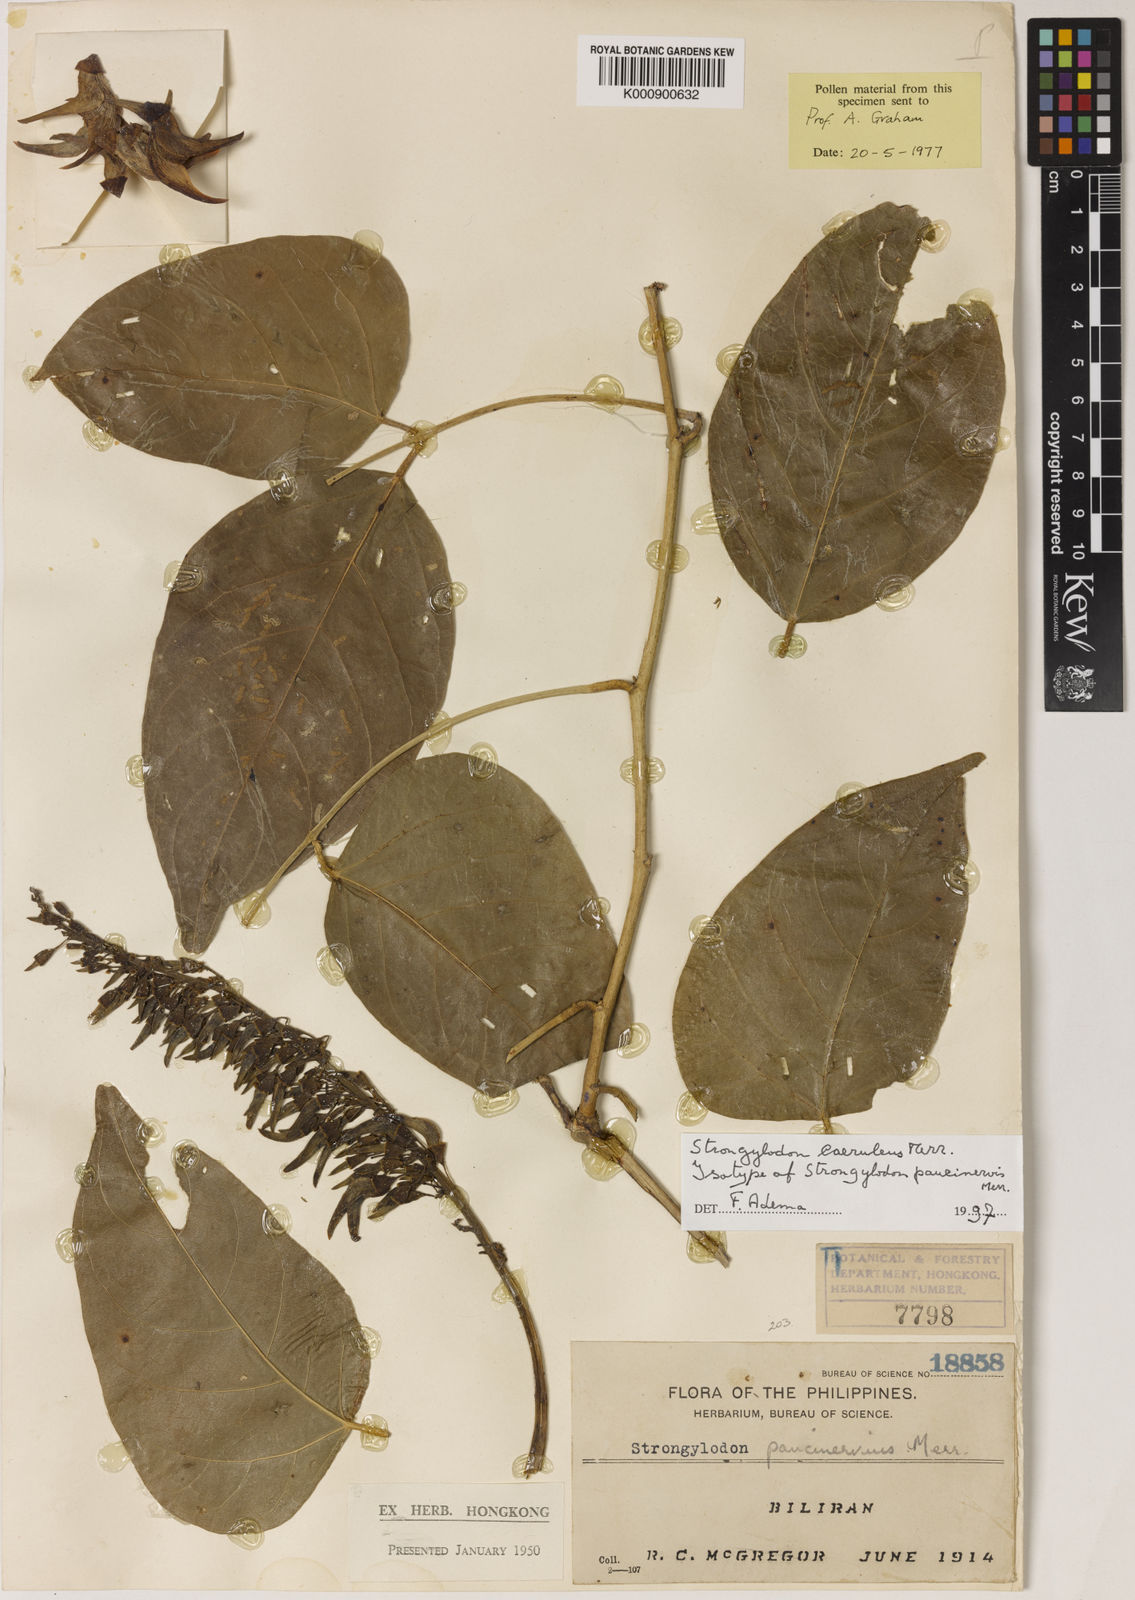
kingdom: Plantae
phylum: Tracheophyta
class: Magnoliopsida
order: Fabales
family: Fabaceae
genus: Strongylodon
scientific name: Strongylodon caeruleus
